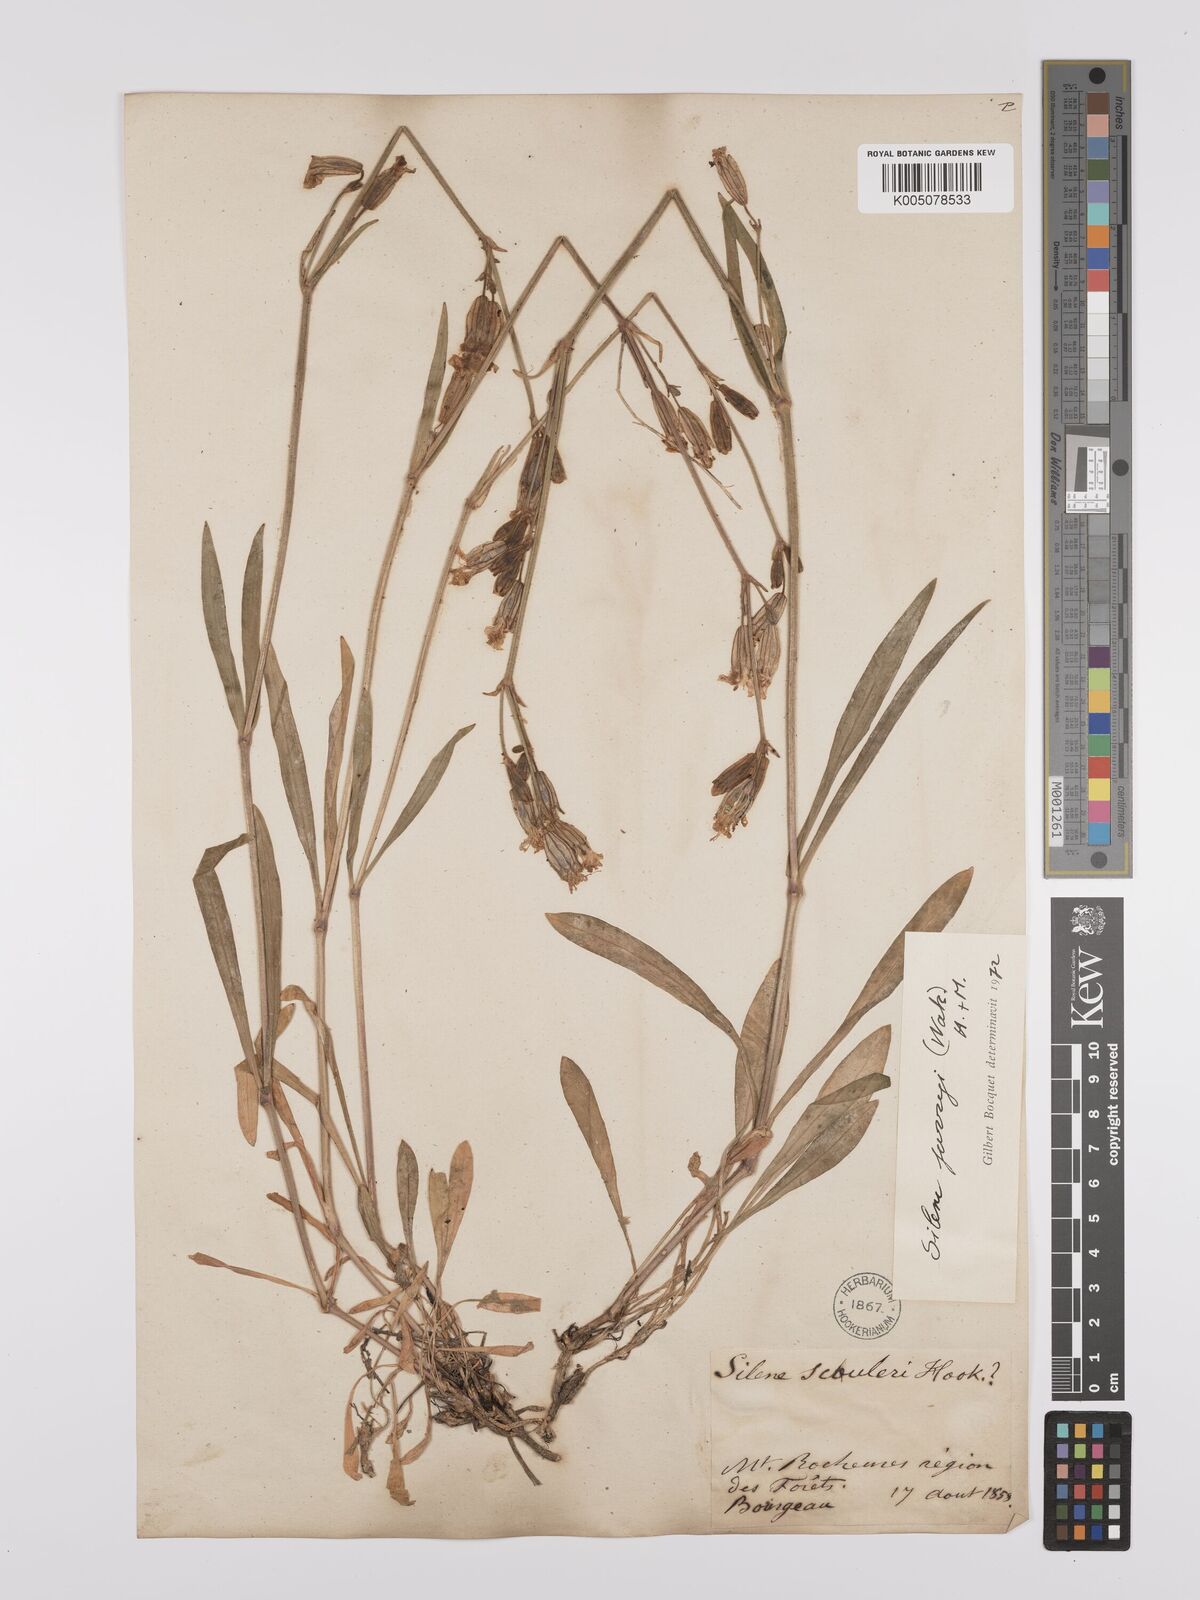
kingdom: Plantae
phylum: Tracheophyta
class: Magnoliopsida
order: Caryophyllales
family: Caryophyllaceae
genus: Silene
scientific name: Silene parryi
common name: Parry's campion
